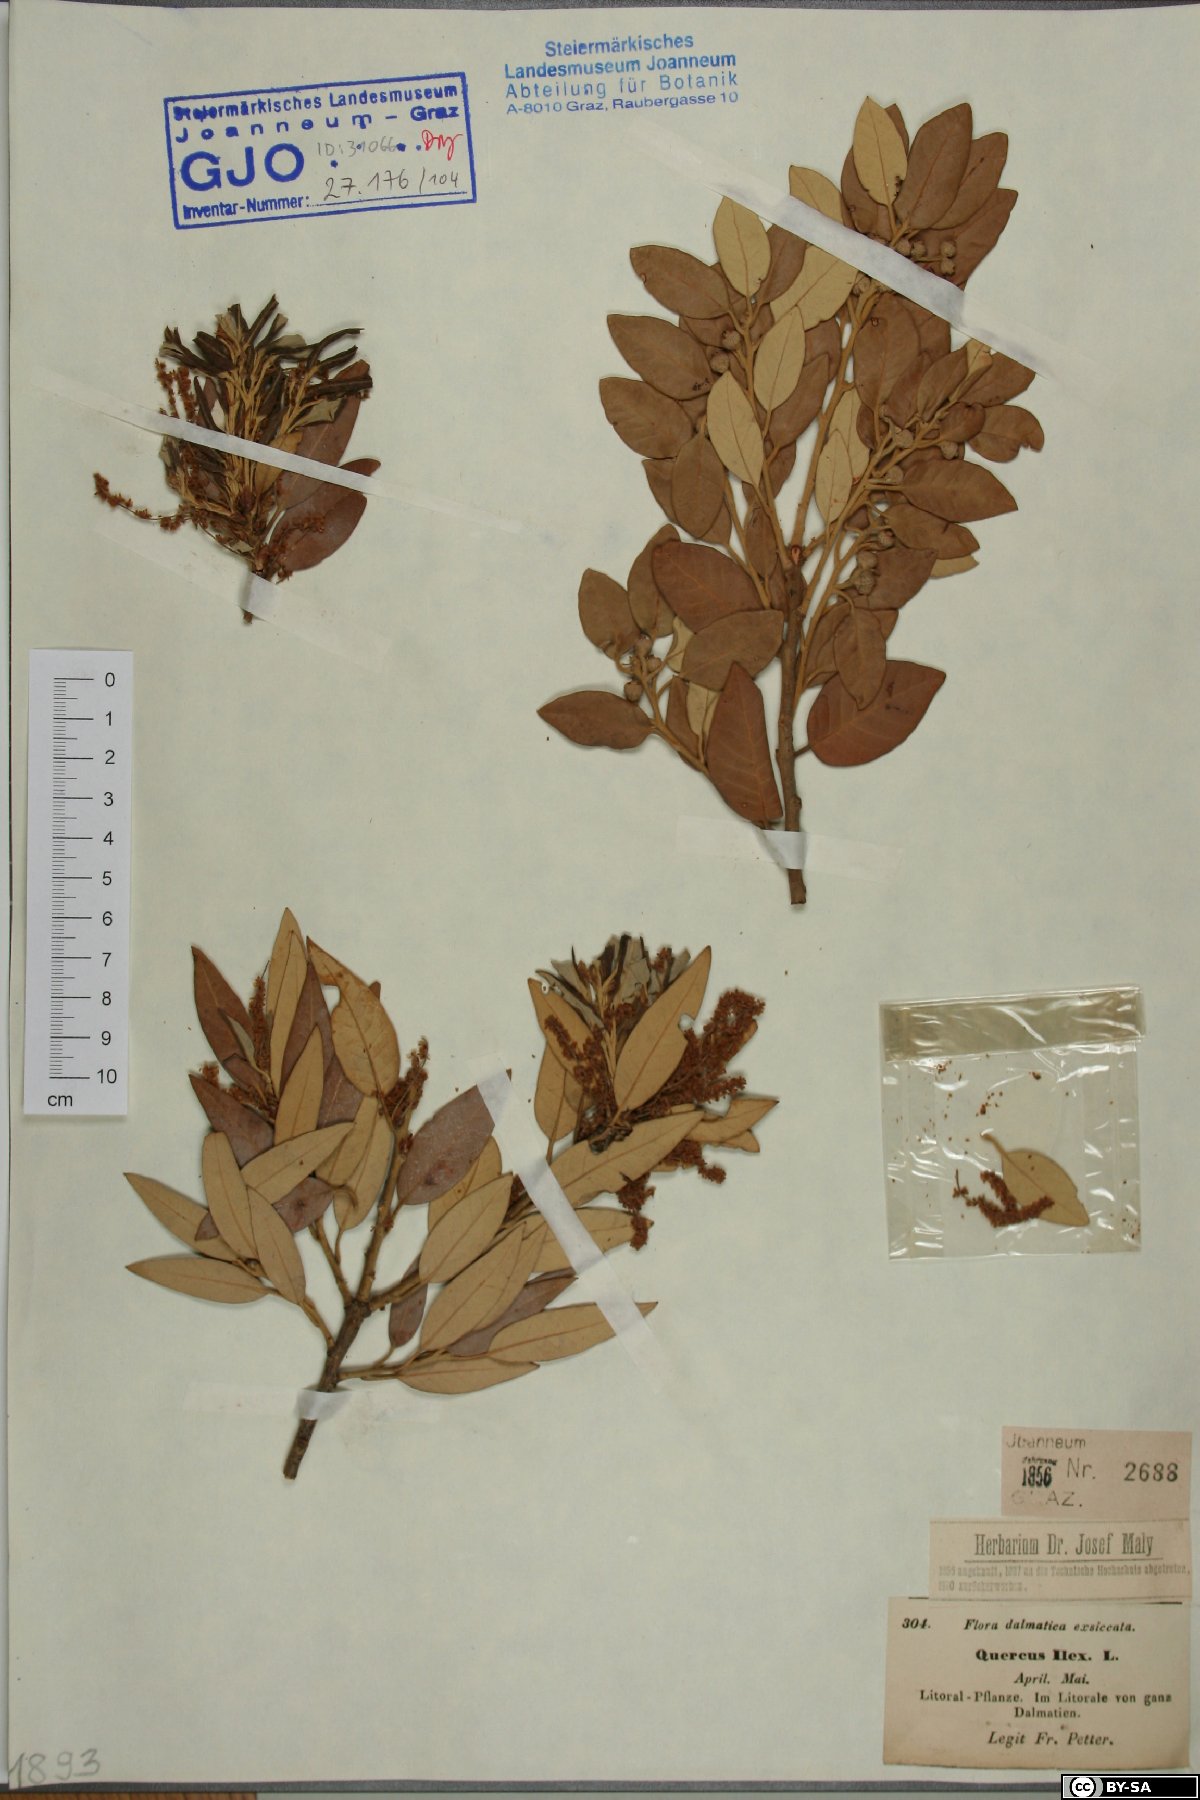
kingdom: Plantae
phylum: Tracheophyta
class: Magnoliopsida
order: Fagales
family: Fagaceae
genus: Quercus
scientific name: Quercus ilex
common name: Evergreen oak
